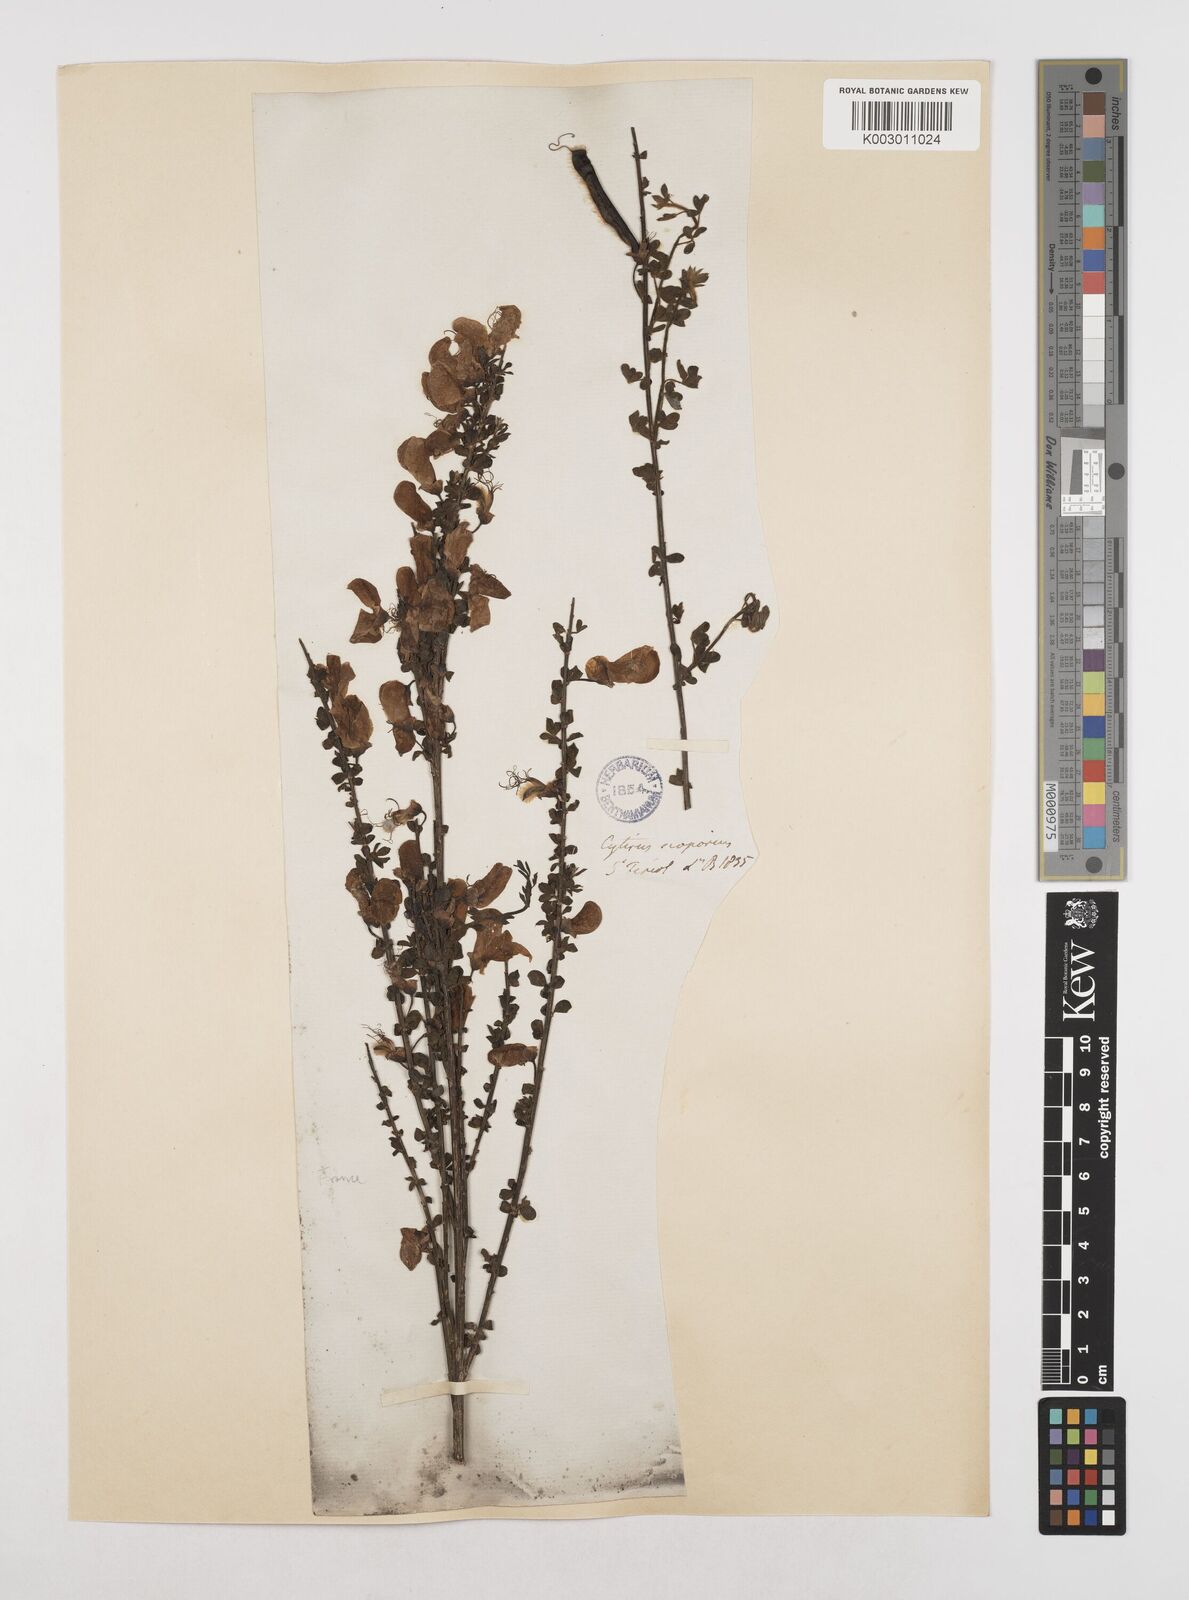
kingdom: Plantae
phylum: Tracheophyta
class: Magnoliopsida
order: Fabales
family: Fabaceae
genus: Cytisus
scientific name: Cytisus scoparius
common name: Scotch broom
